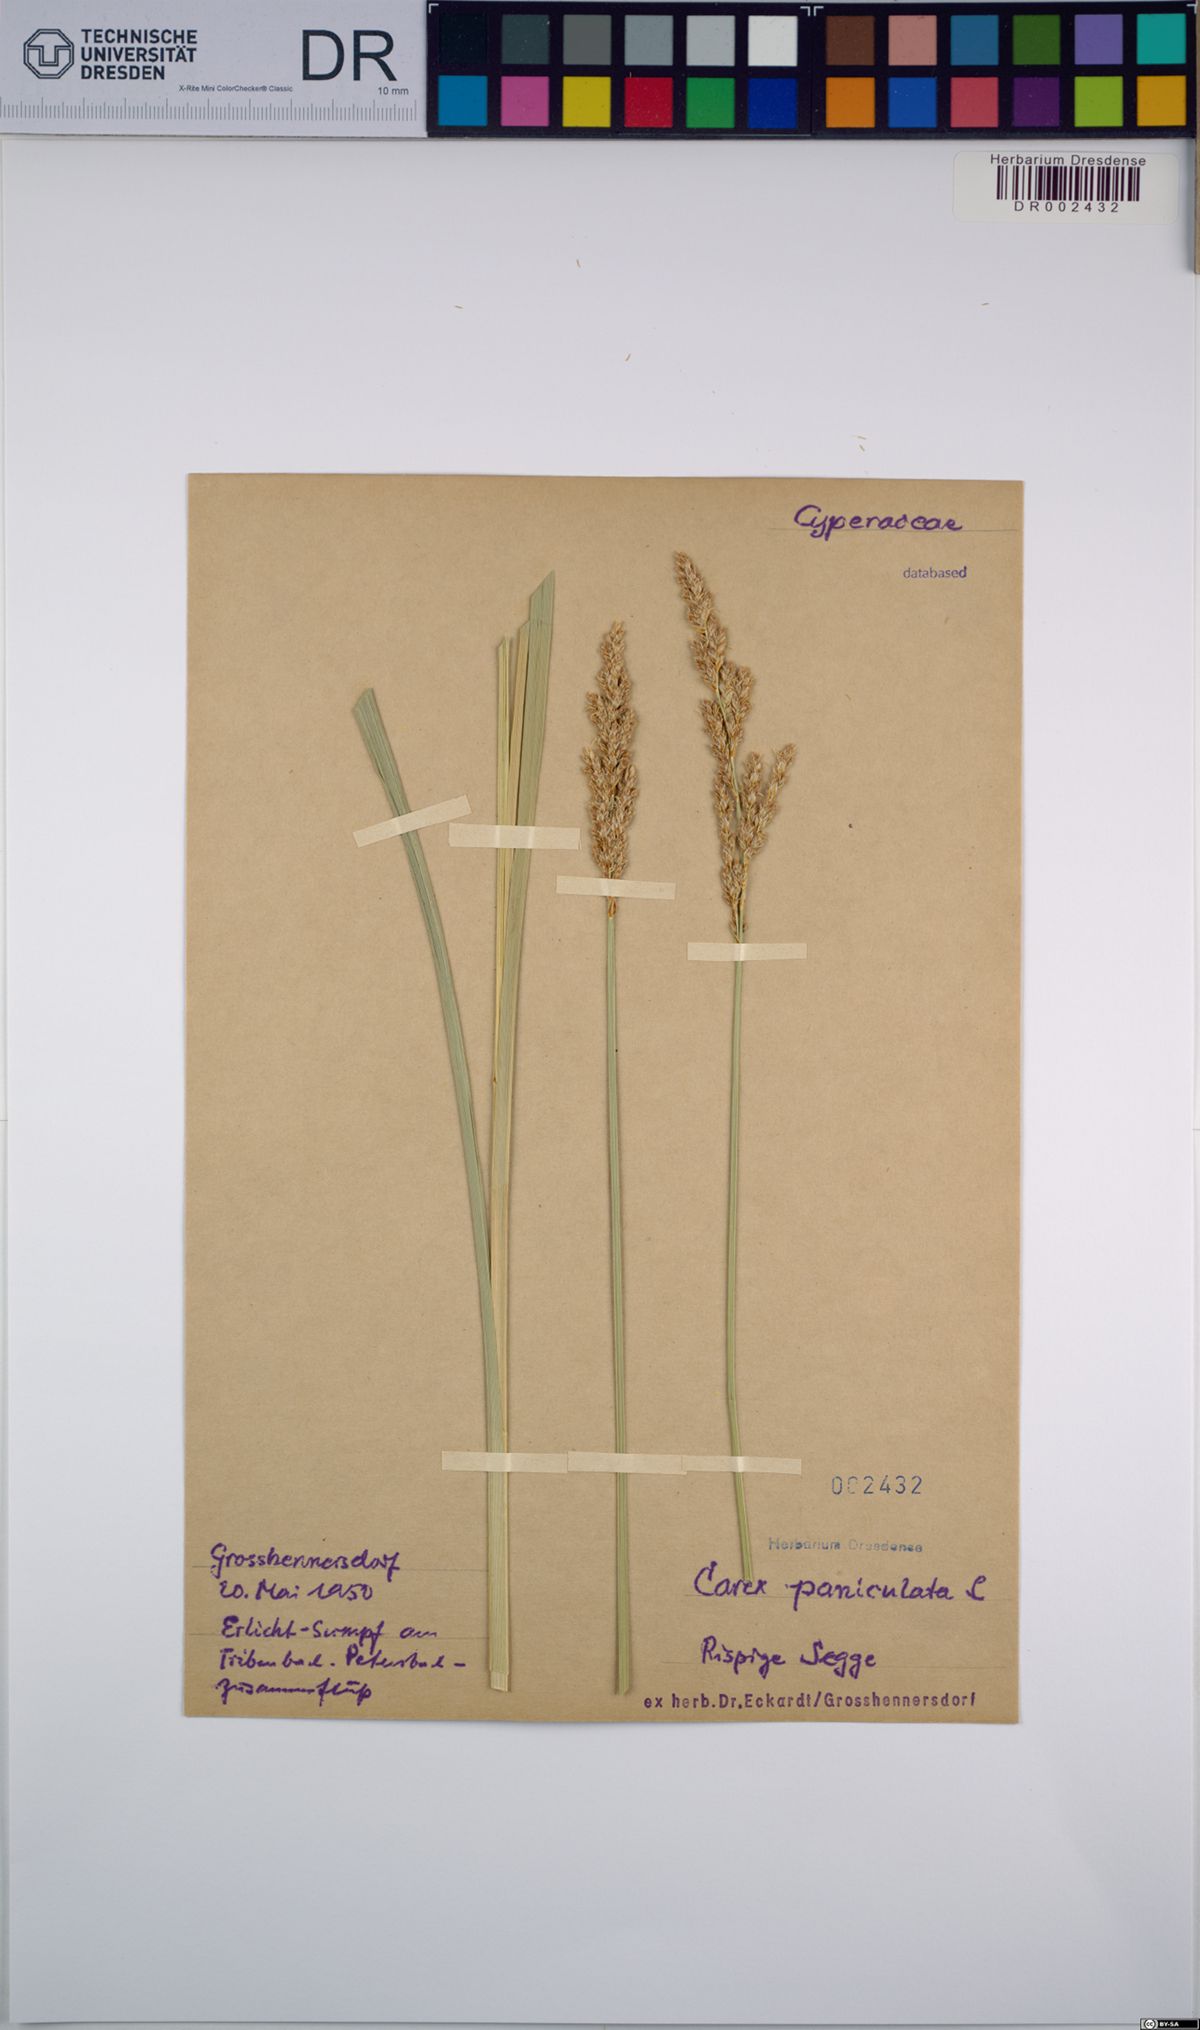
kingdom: Plantae
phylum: Tracheophyta
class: Liliopsida
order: Poales
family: Cyperaceae
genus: Carex
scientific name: Carex paniculata
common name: Greater tussock-sedge
